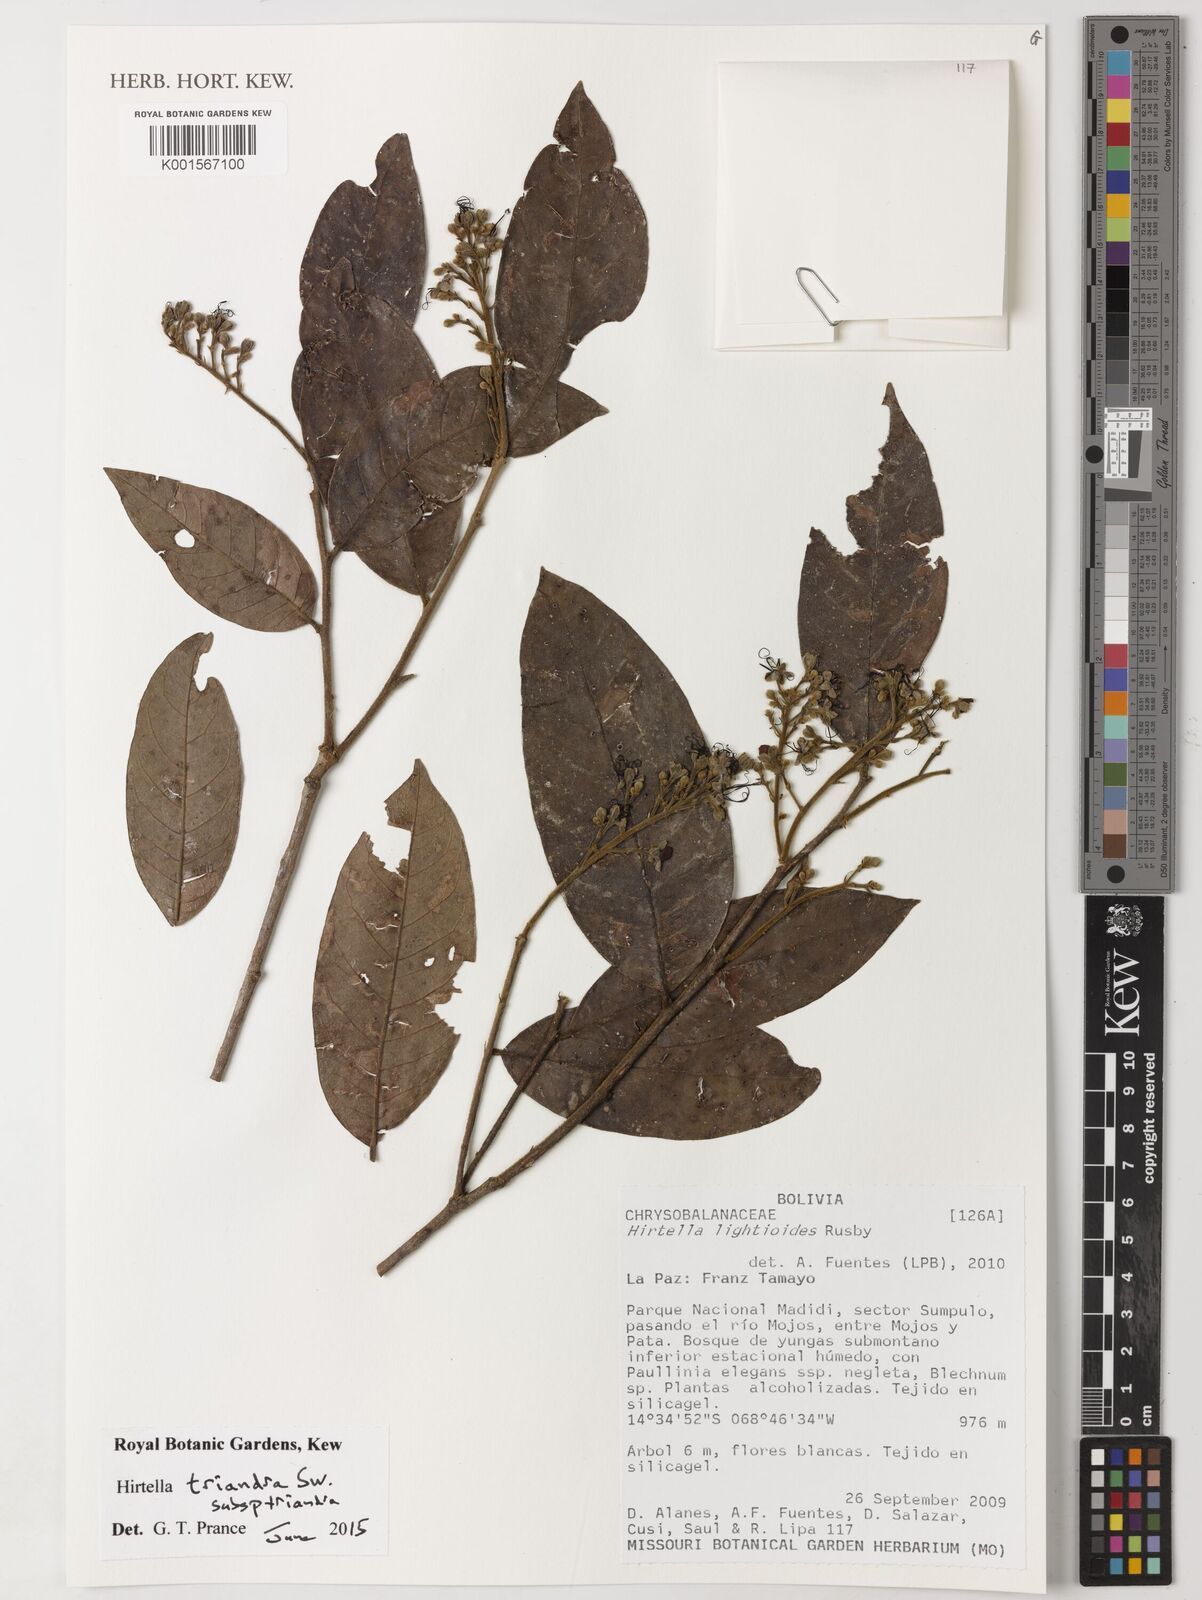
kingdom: Plantae
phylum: Tracheophyta
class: Magnoliopsida
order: Malpighiales
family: Chrysobalanaceae
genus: Hirtella
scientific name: Hirtella triandra
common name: Hairy plum
